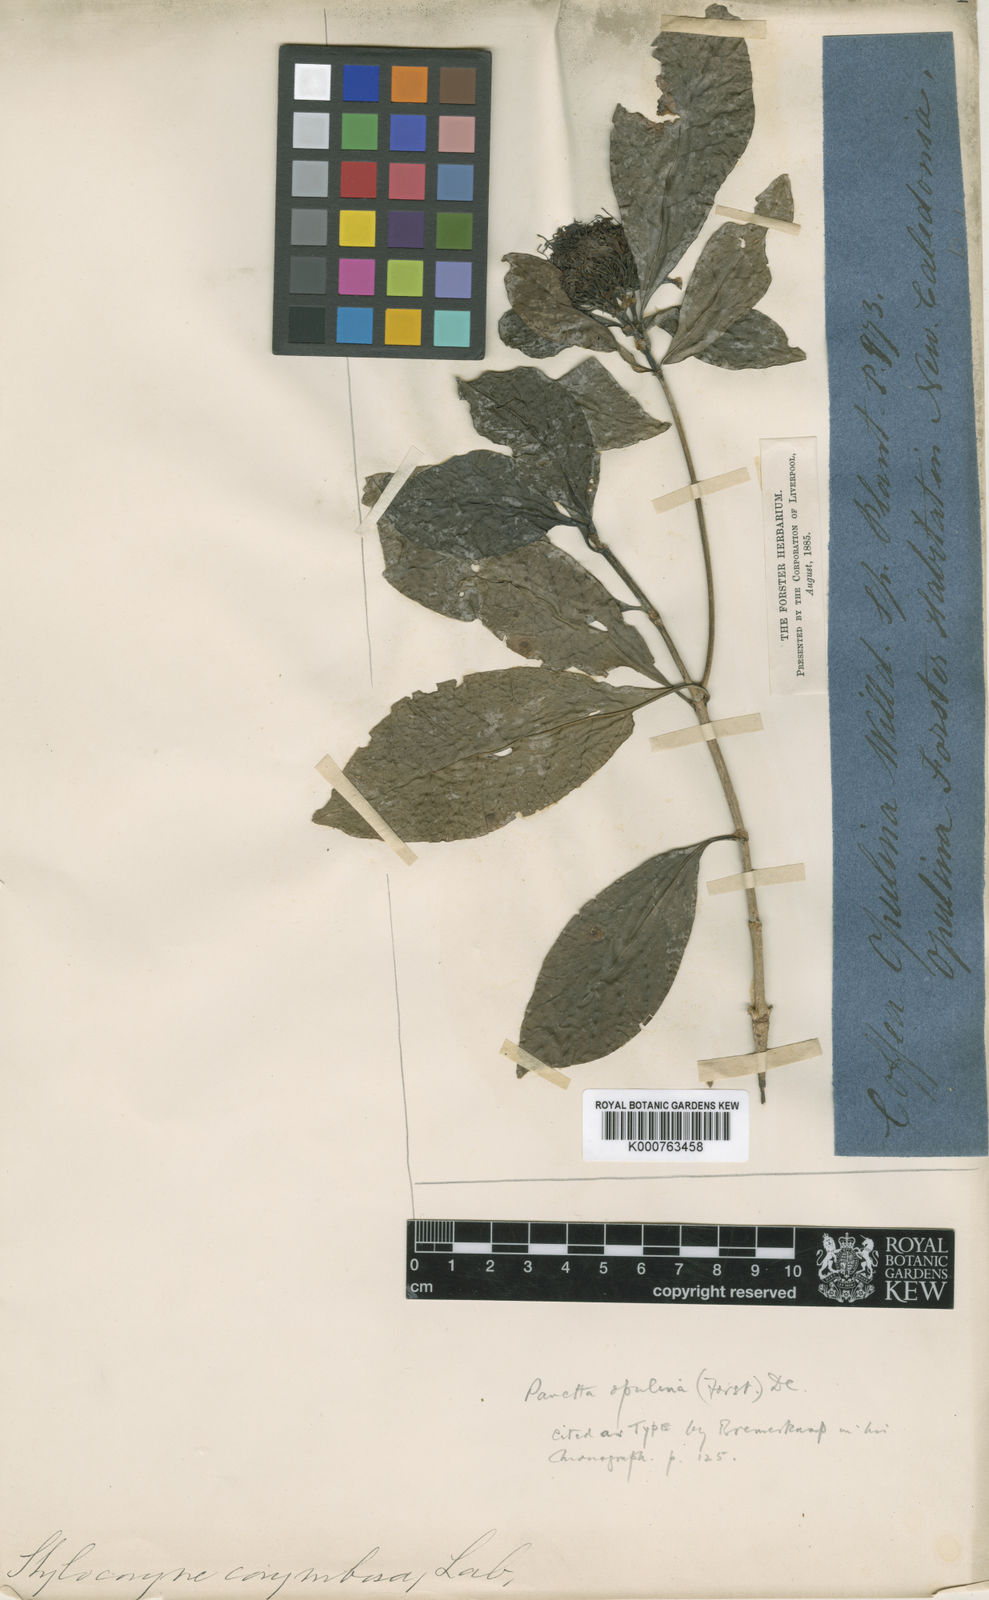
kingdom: Plantae
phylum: Tracheophyta
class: Magnoliopsida
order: Gentianales
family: Rubiaceae
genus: Pavetta
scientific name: Pavetta opulina
